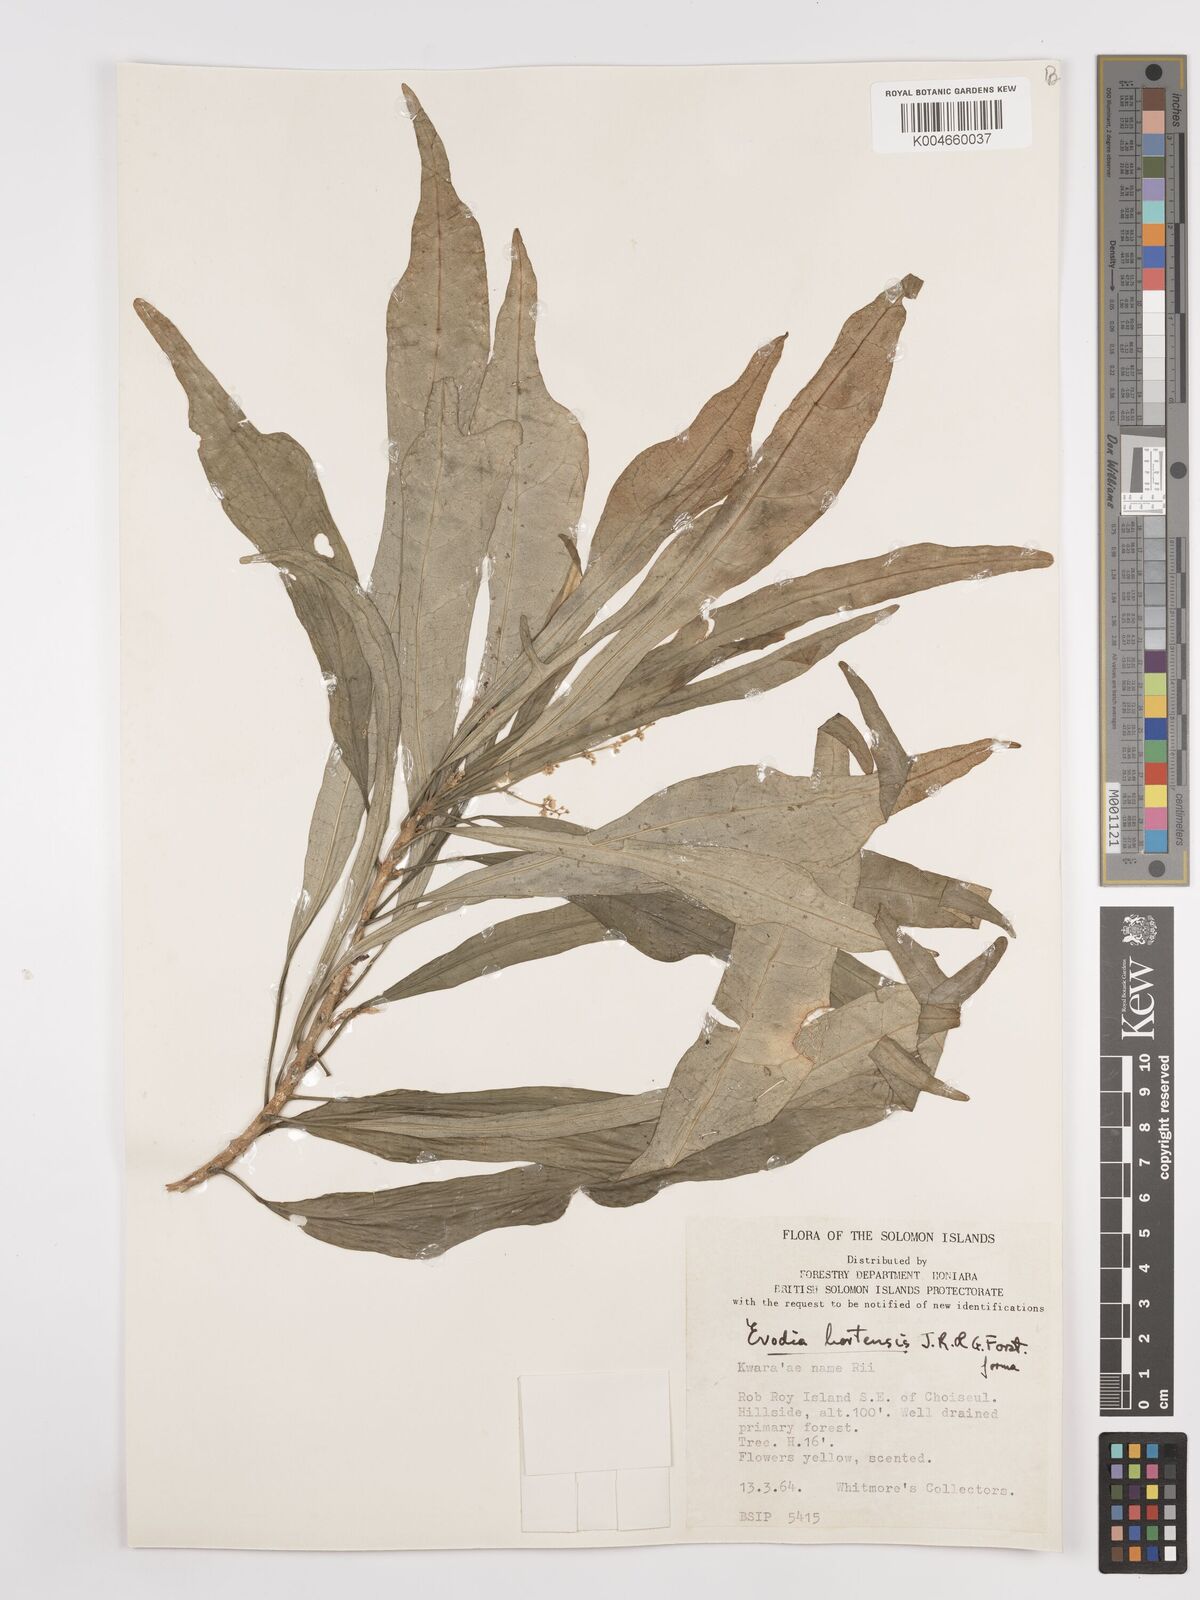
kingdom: Plantae
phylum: Tracheophyta
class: Magnoliopsida
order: Sapindales
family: Rutaceae
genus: Euodia
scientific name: Euodia hortensis
